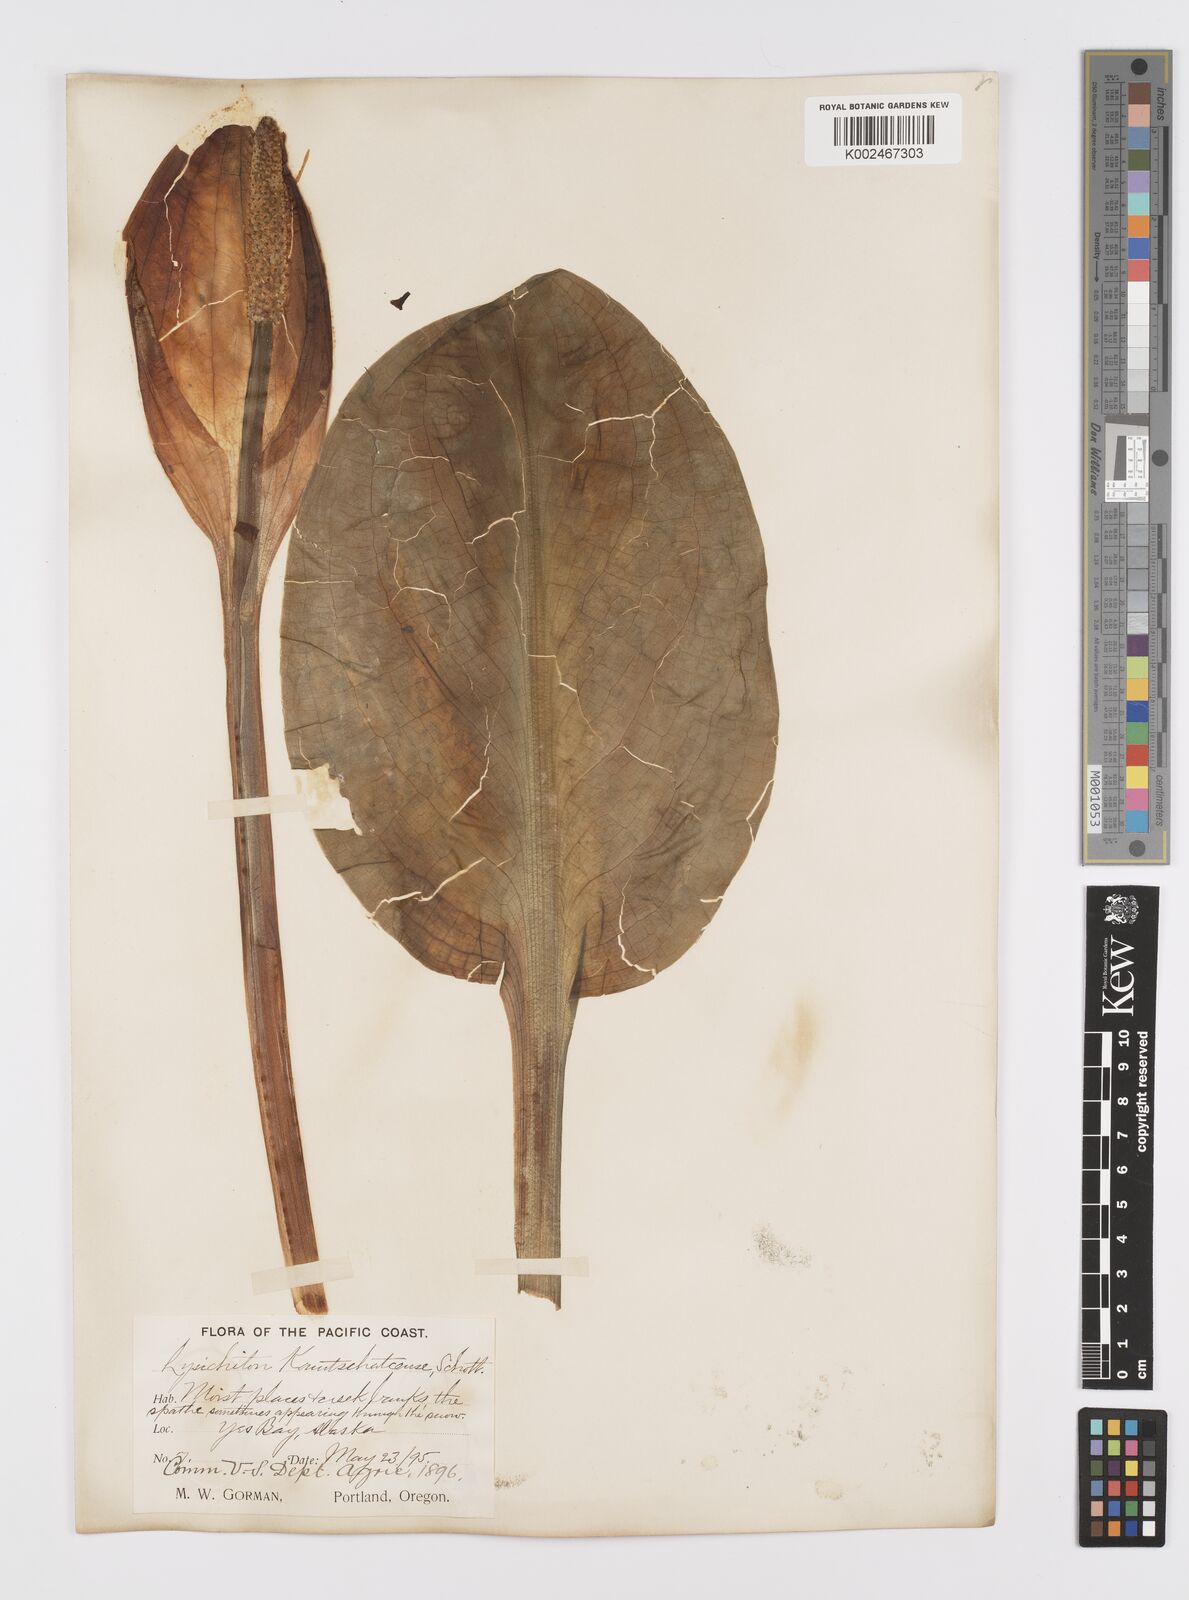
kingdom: Plantae
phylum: Tracheophyta
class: Liliopsida
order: Alismatales
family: Araceae
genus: Lysichiton
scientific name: Lysichiton americanus
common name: American skunk cabbage
